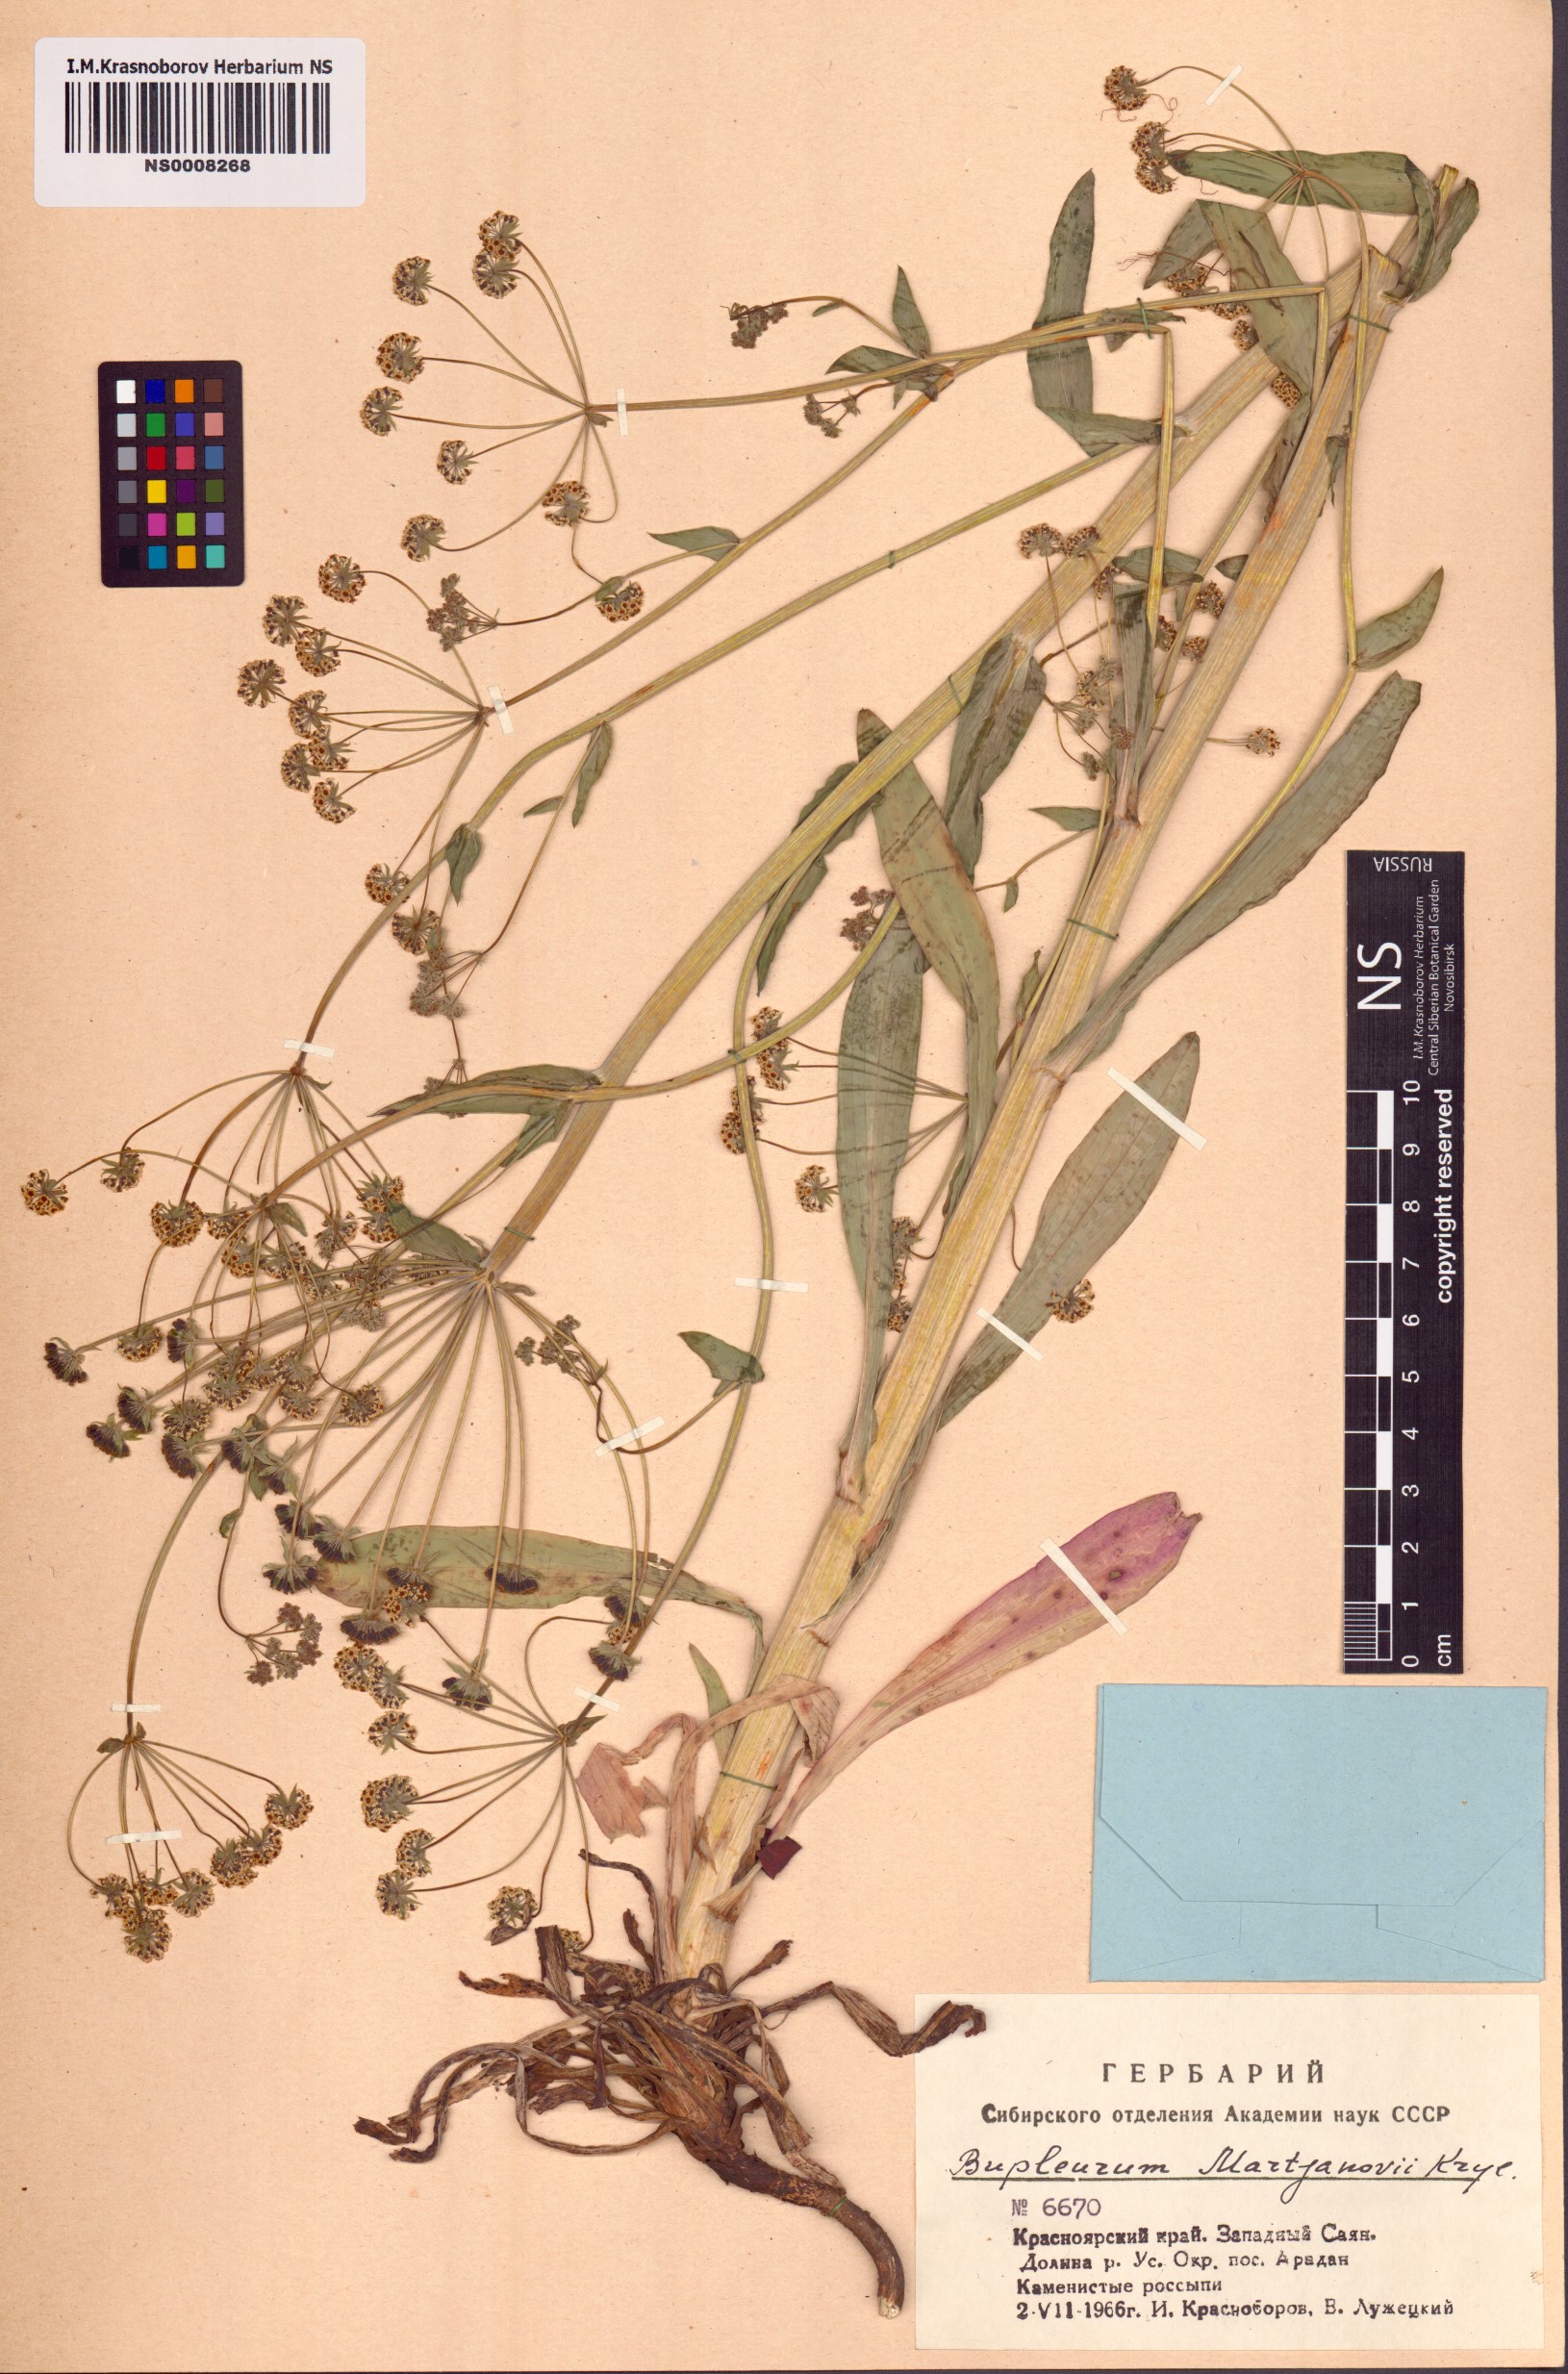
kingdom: Plantae
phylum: Tracheophyta
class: Magnoliopsida
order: Apiales
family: Apiaceae
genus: Bupleurum
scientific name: Bupleurum martjanovii
